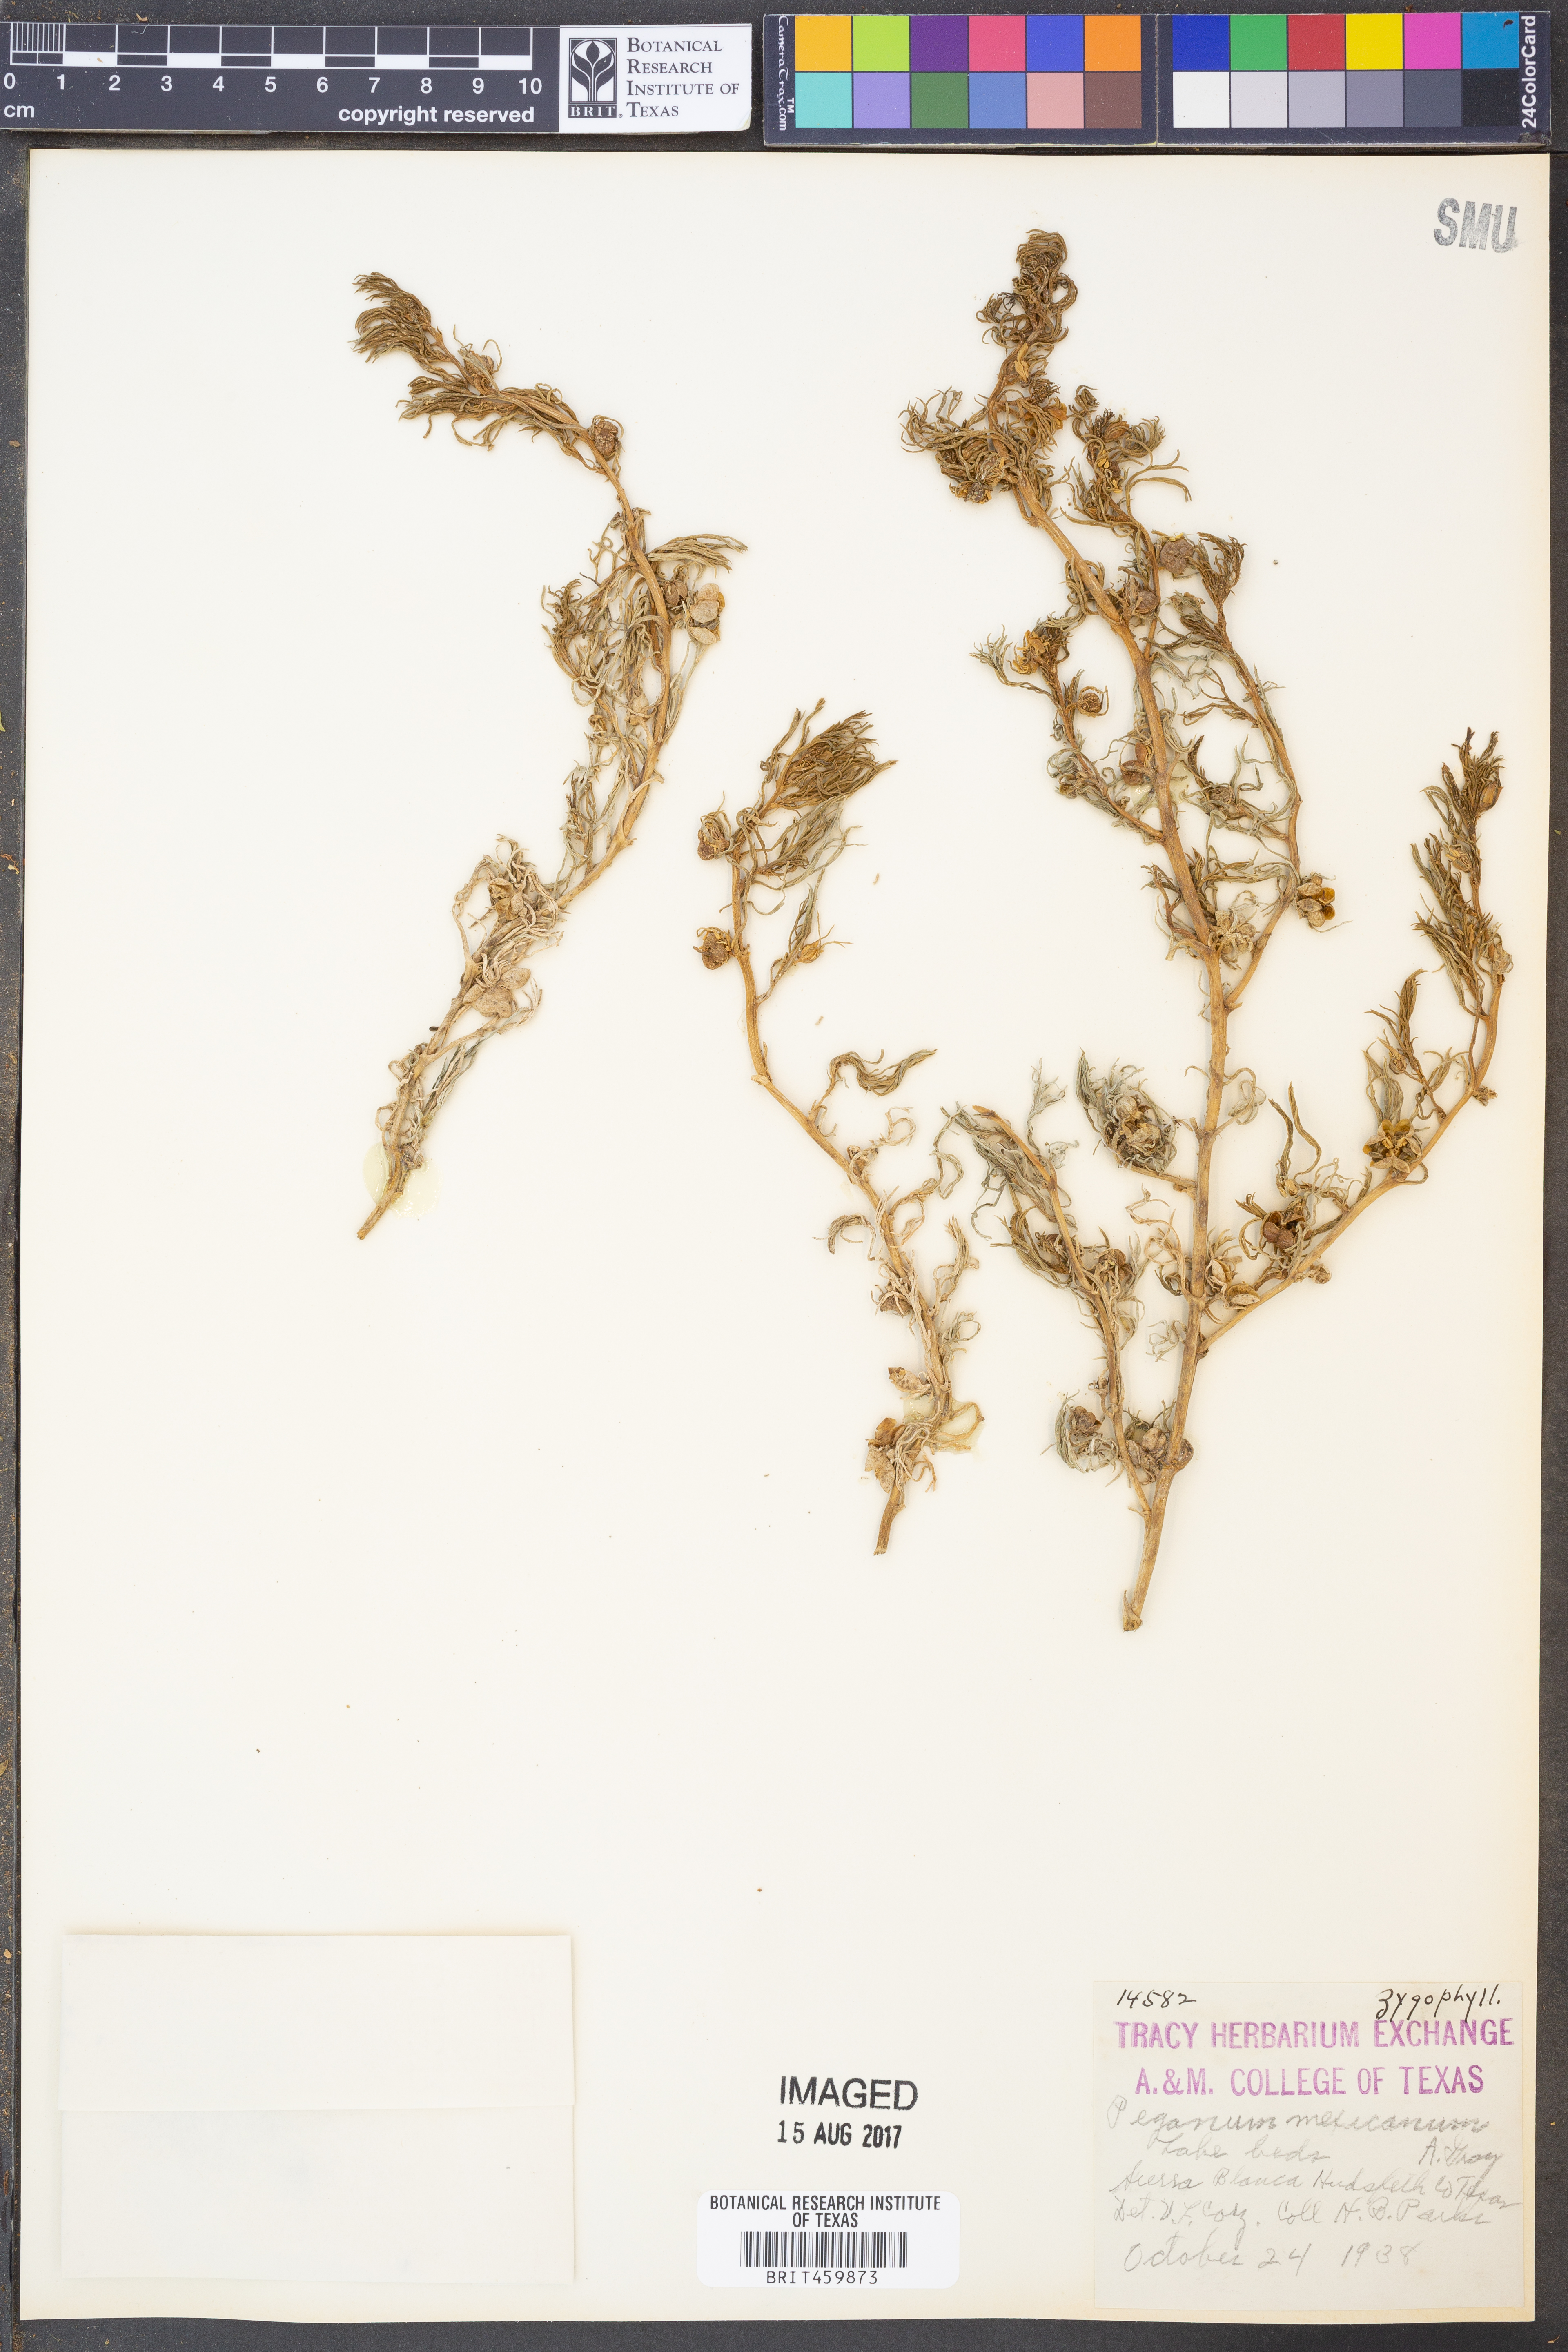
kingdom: Plantae
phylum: Tracheophyta
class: Magnoliopsida
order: Sapindales
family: Tetradiclidaceae
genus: Peganum
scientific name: Peganum mexicanum
